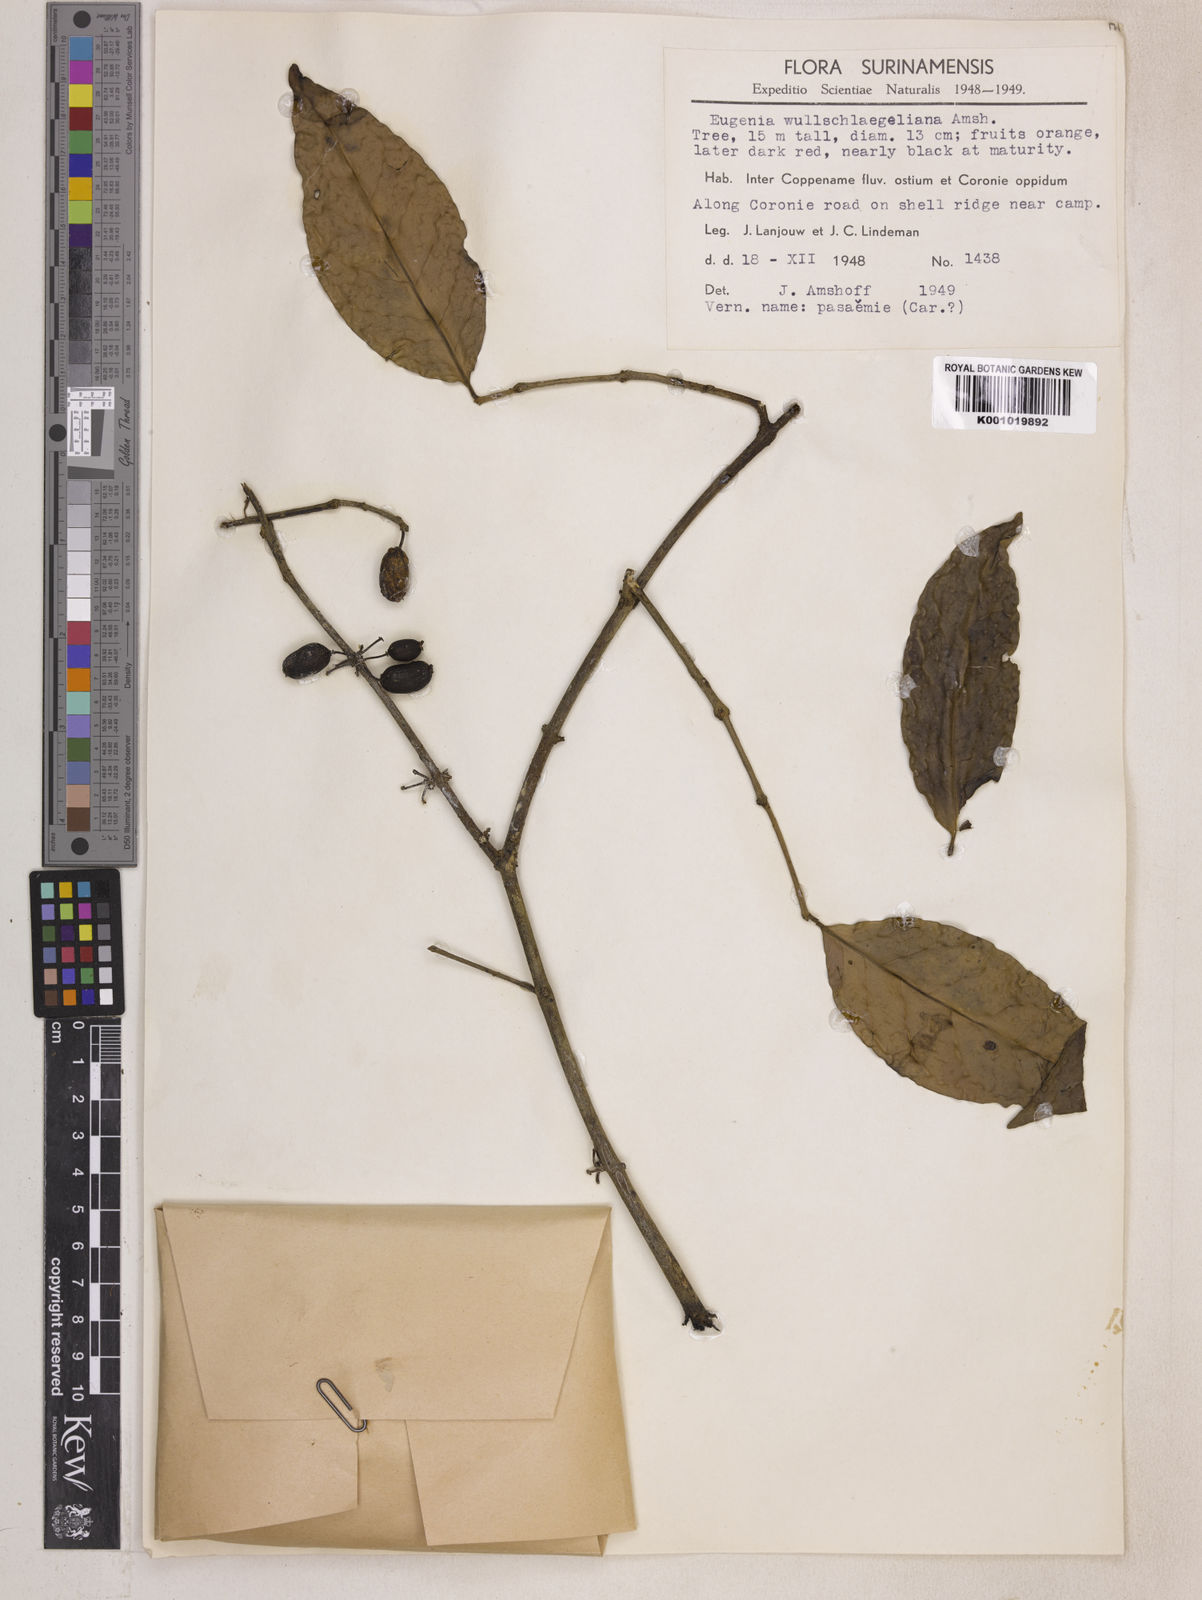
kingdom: Plantae
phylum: Tracheophyta
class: Magnoliopsida
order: Myrtales
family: Myrtaceae
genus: Eugenia
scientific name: Eugenia wullschlaegeliana
